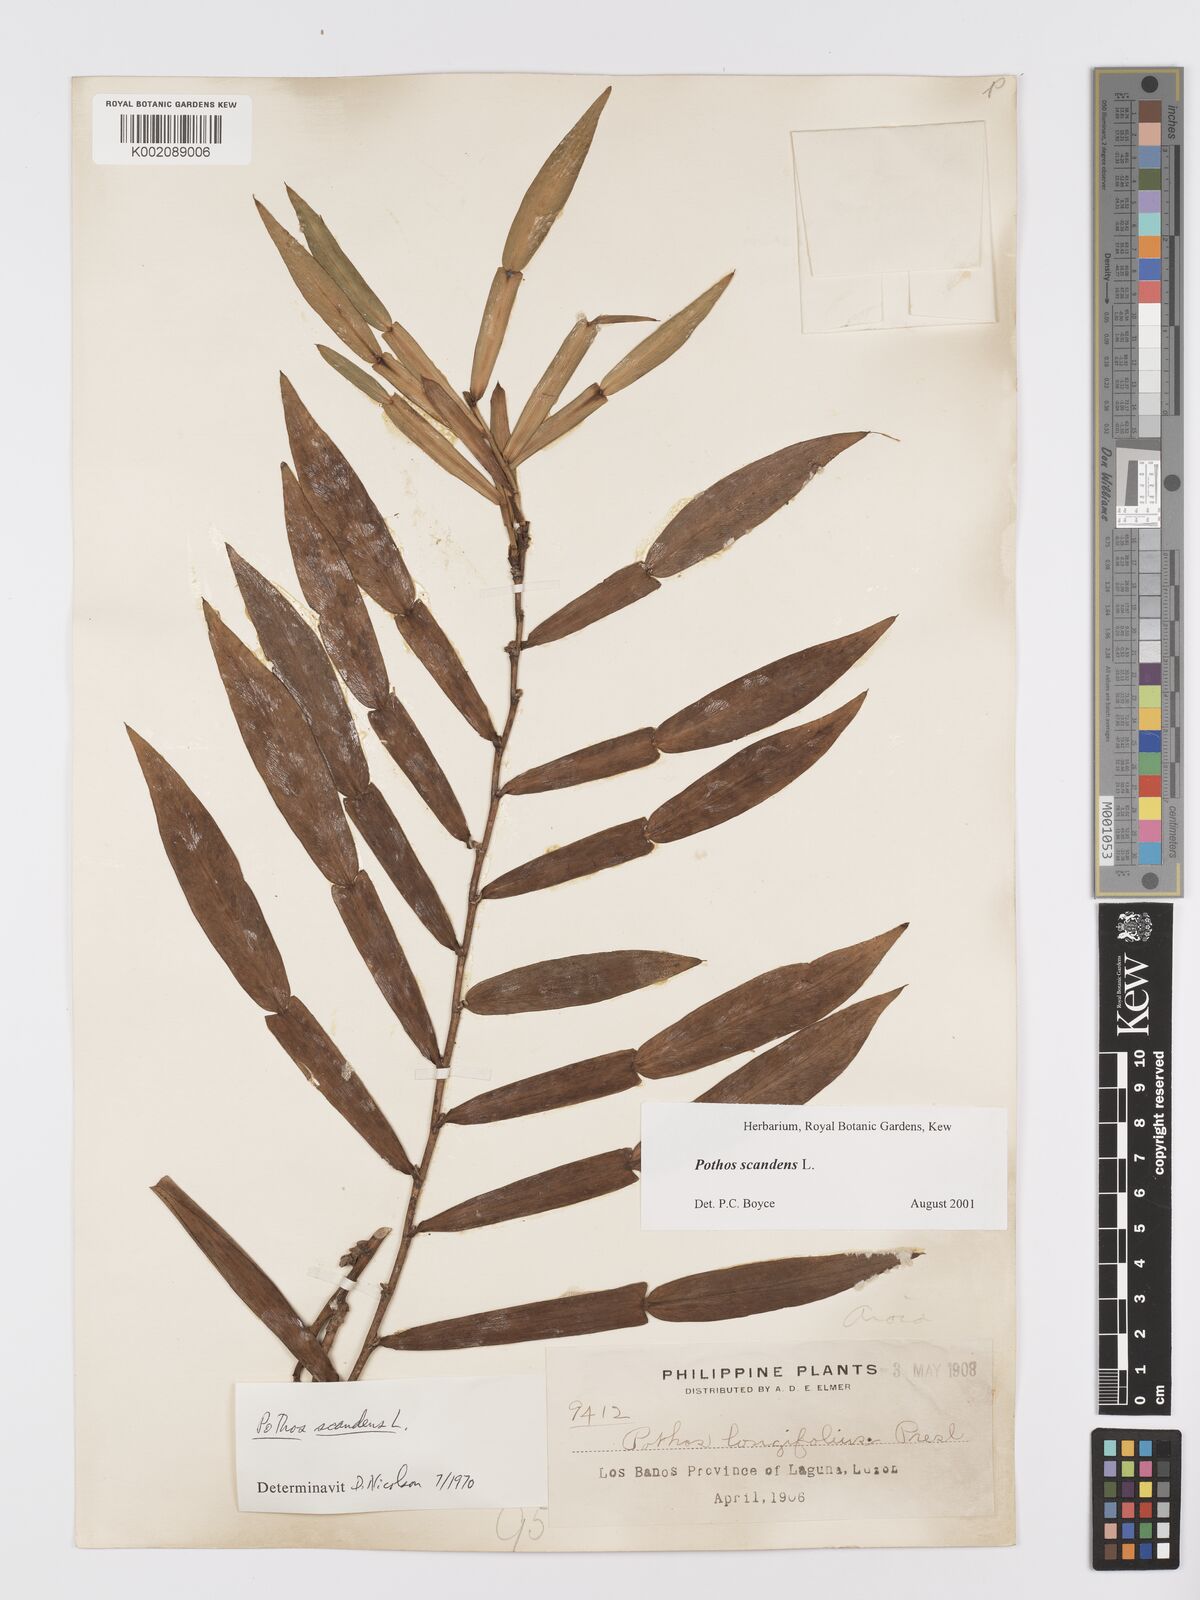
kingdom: Plantae
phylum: Tracheophyta
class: Liliopsida
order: Alismatales
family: Araceae
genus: Pothos
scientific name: Pothos scandens
